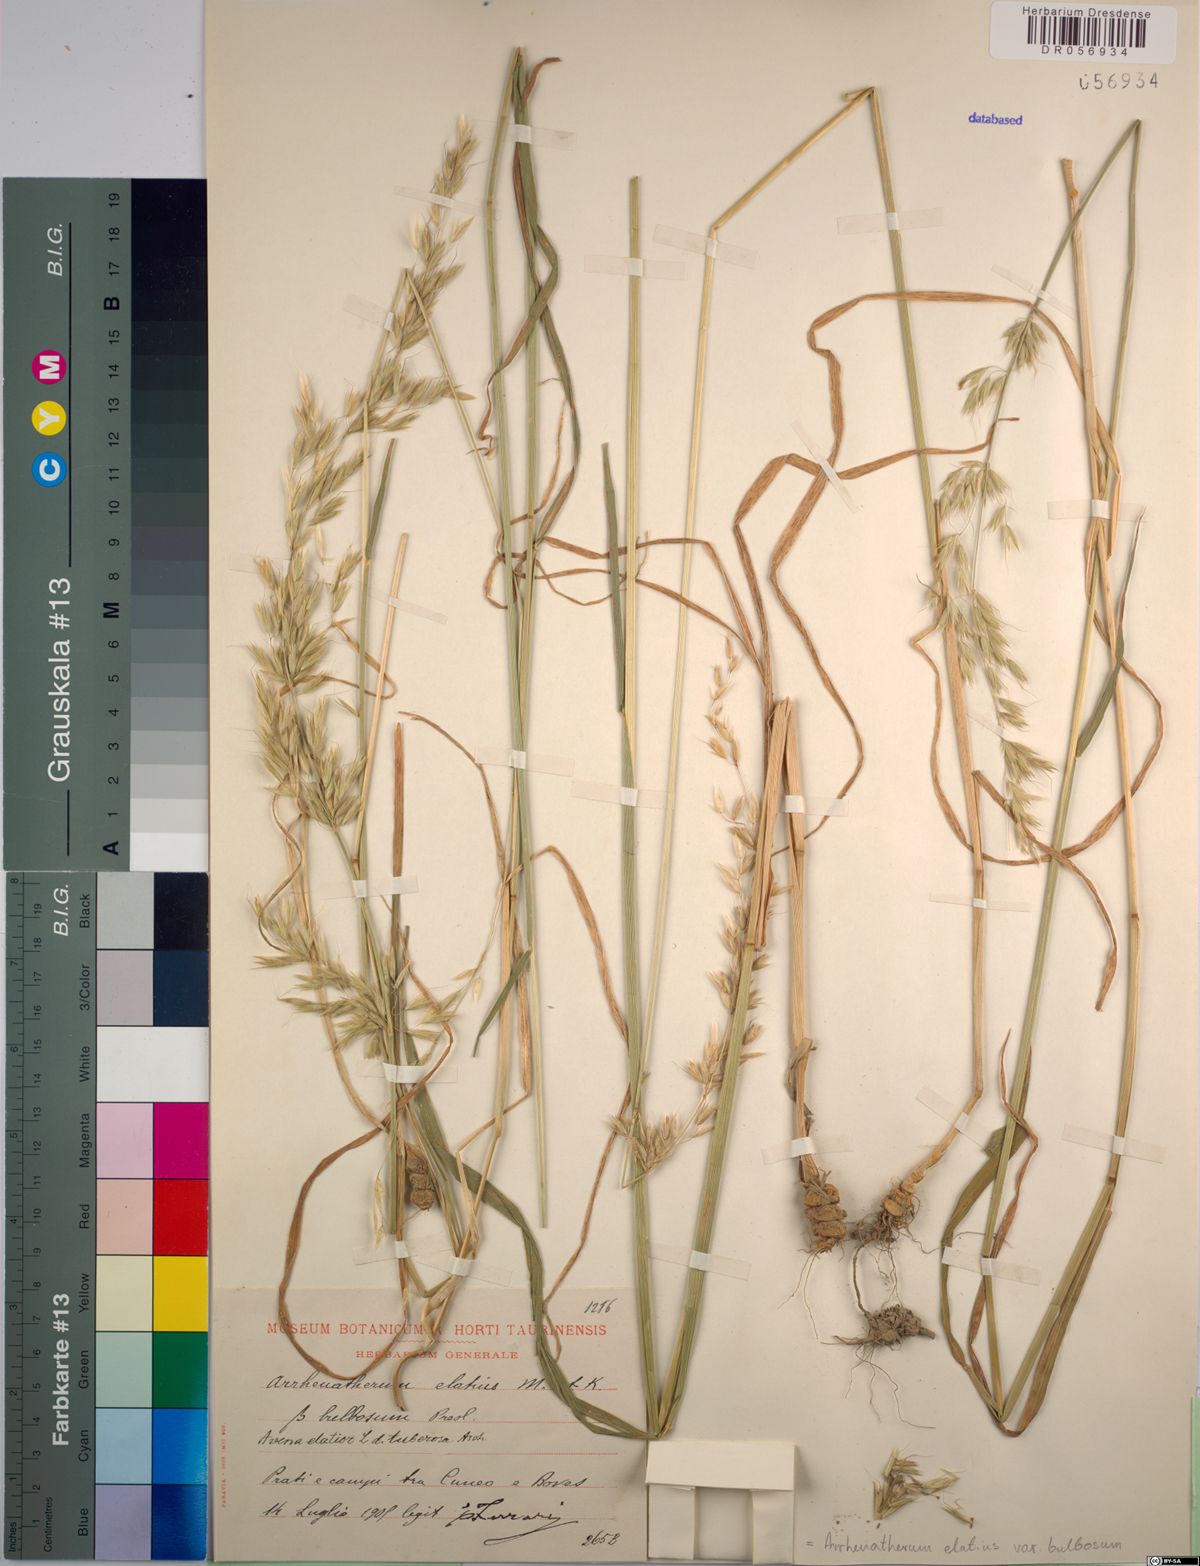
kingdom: Plantae
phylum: Tracheophyta
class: Liliopsida
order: Poales
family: Poaceae
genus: Arrhenatherum
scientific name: Arrhenatherum elatius
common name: Tall oatgrass
